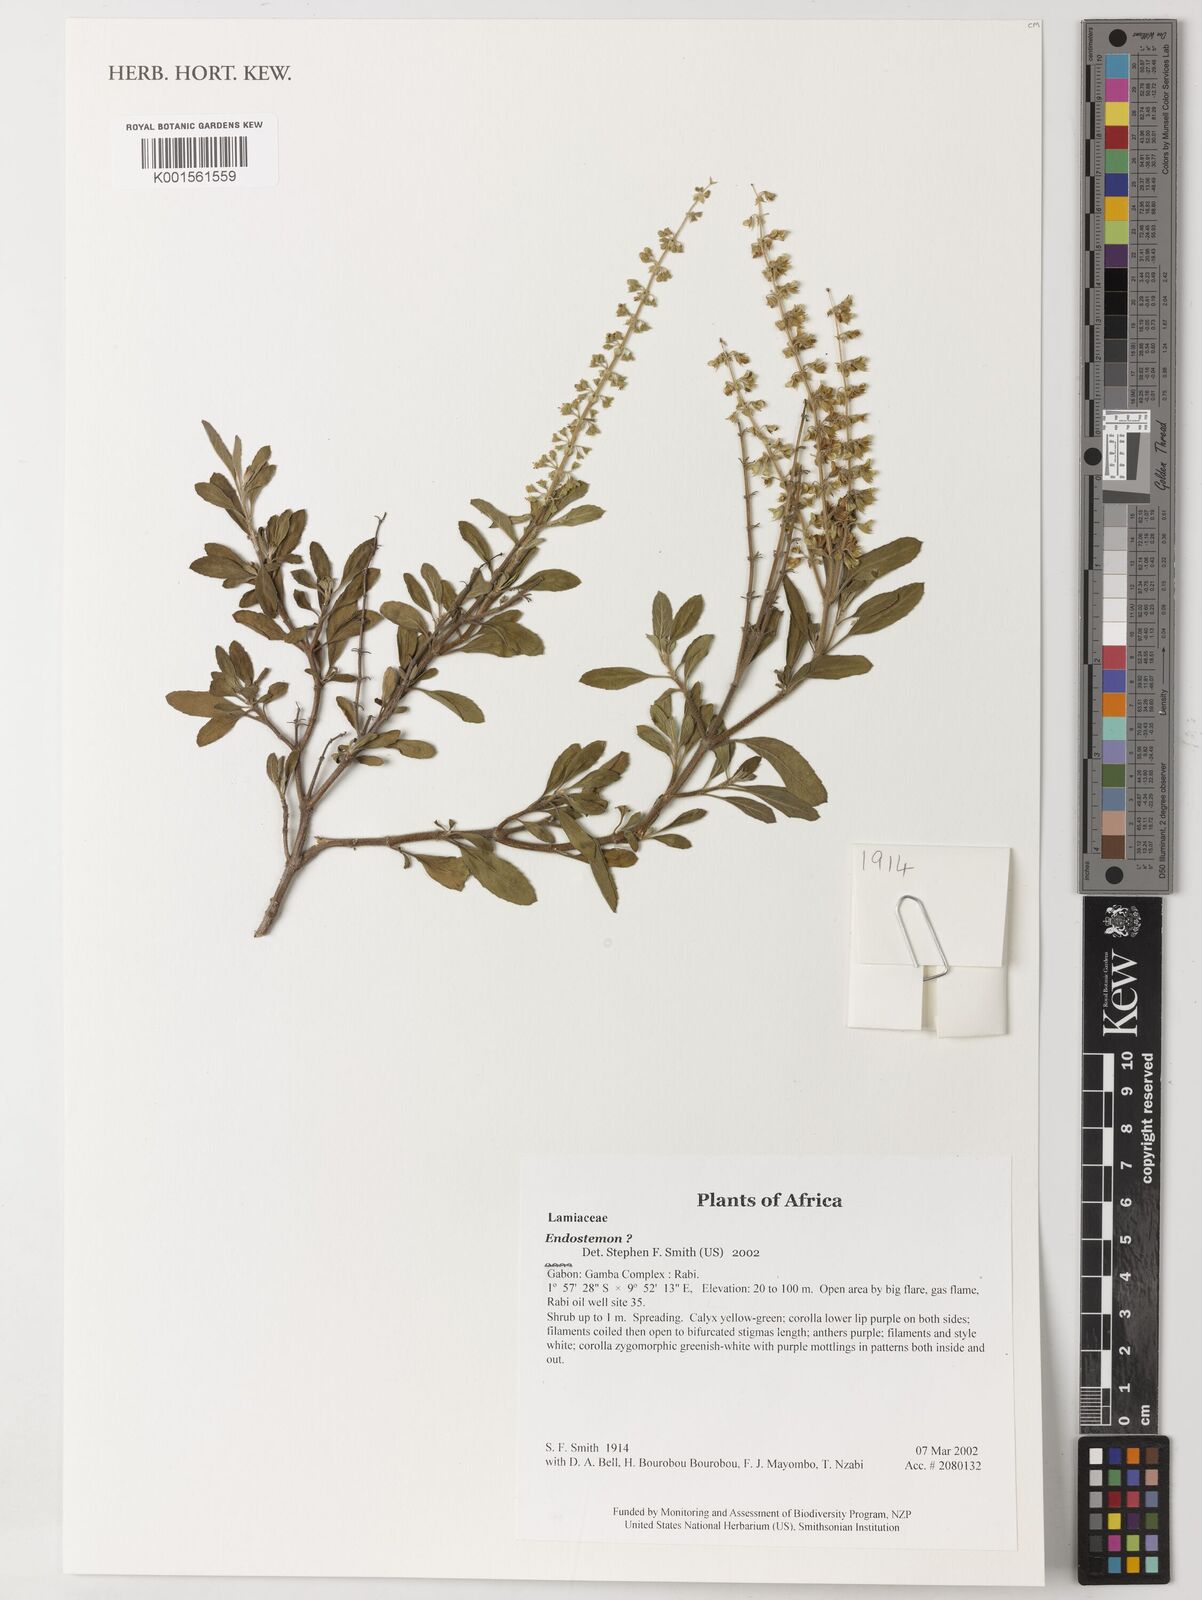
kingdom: Plantae
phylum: Tracheophyta
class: Magnoliopsida
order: Lamiales
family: Lamiaceae
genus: Endostemon
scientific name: Endostemon
